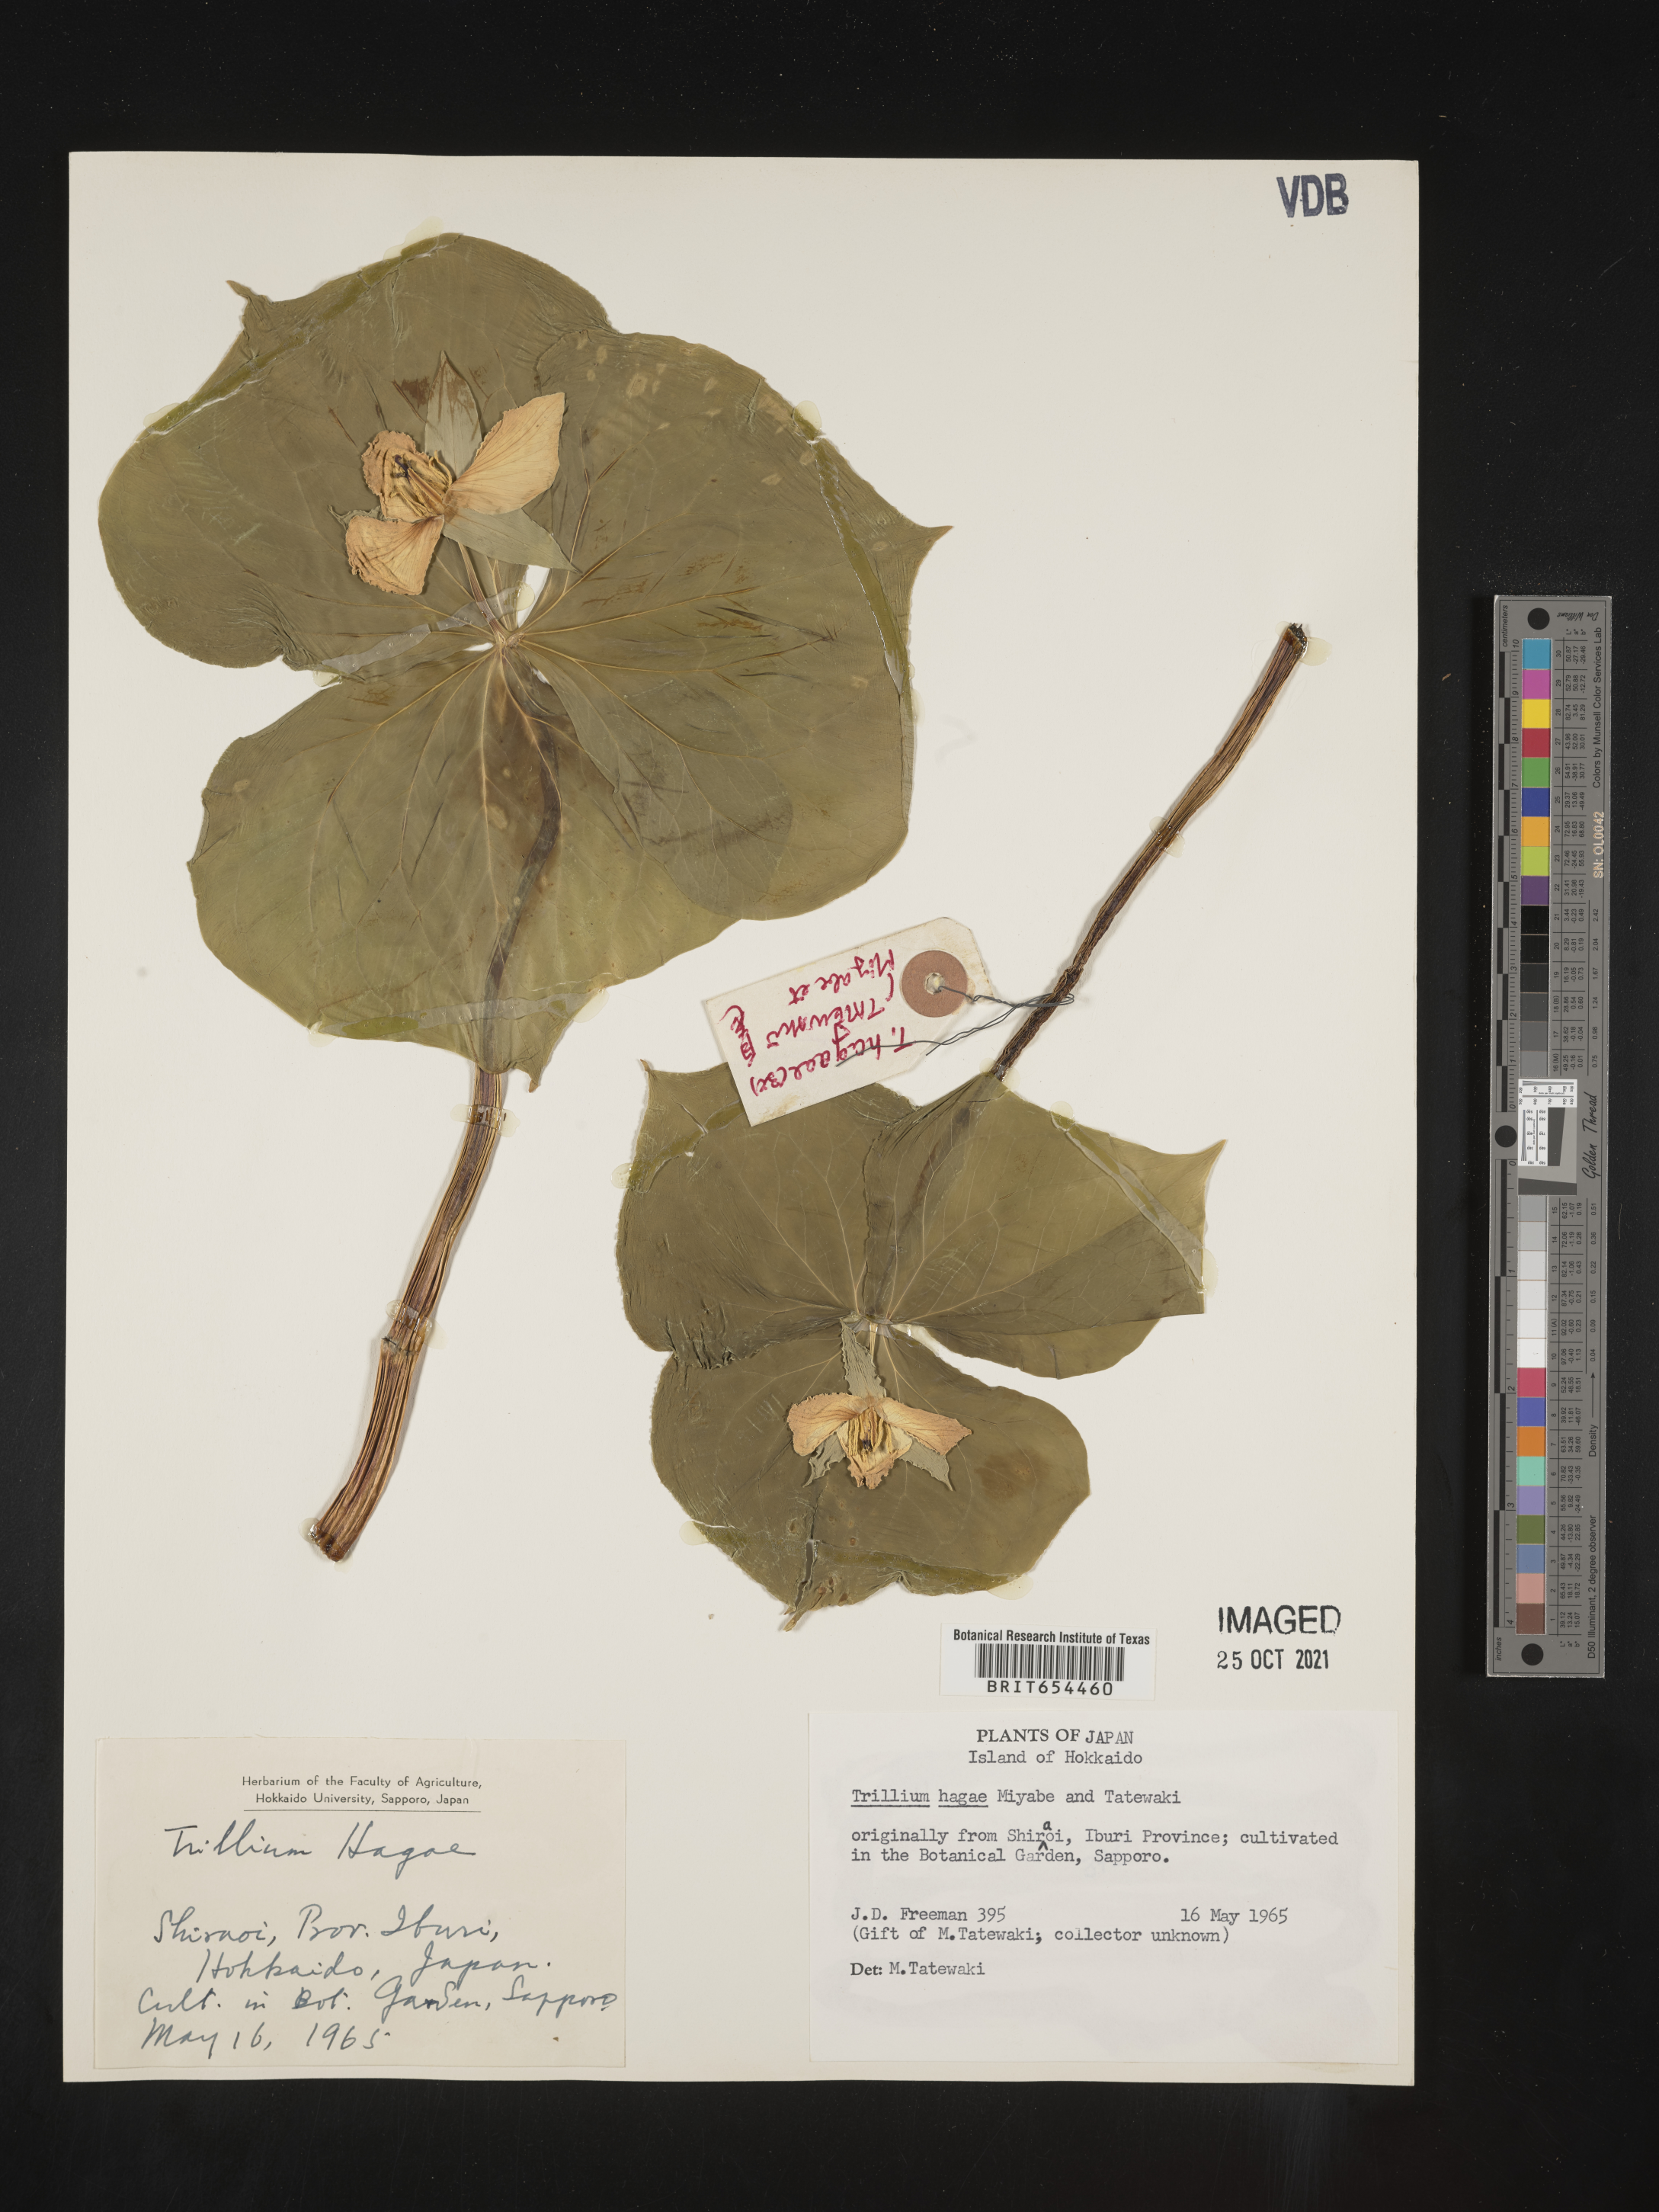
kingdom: Plantae
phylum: Tracheophyta
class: Liliopsida
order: Liliales
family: Melanthiaceae
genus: Trillium
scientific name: Trillium
